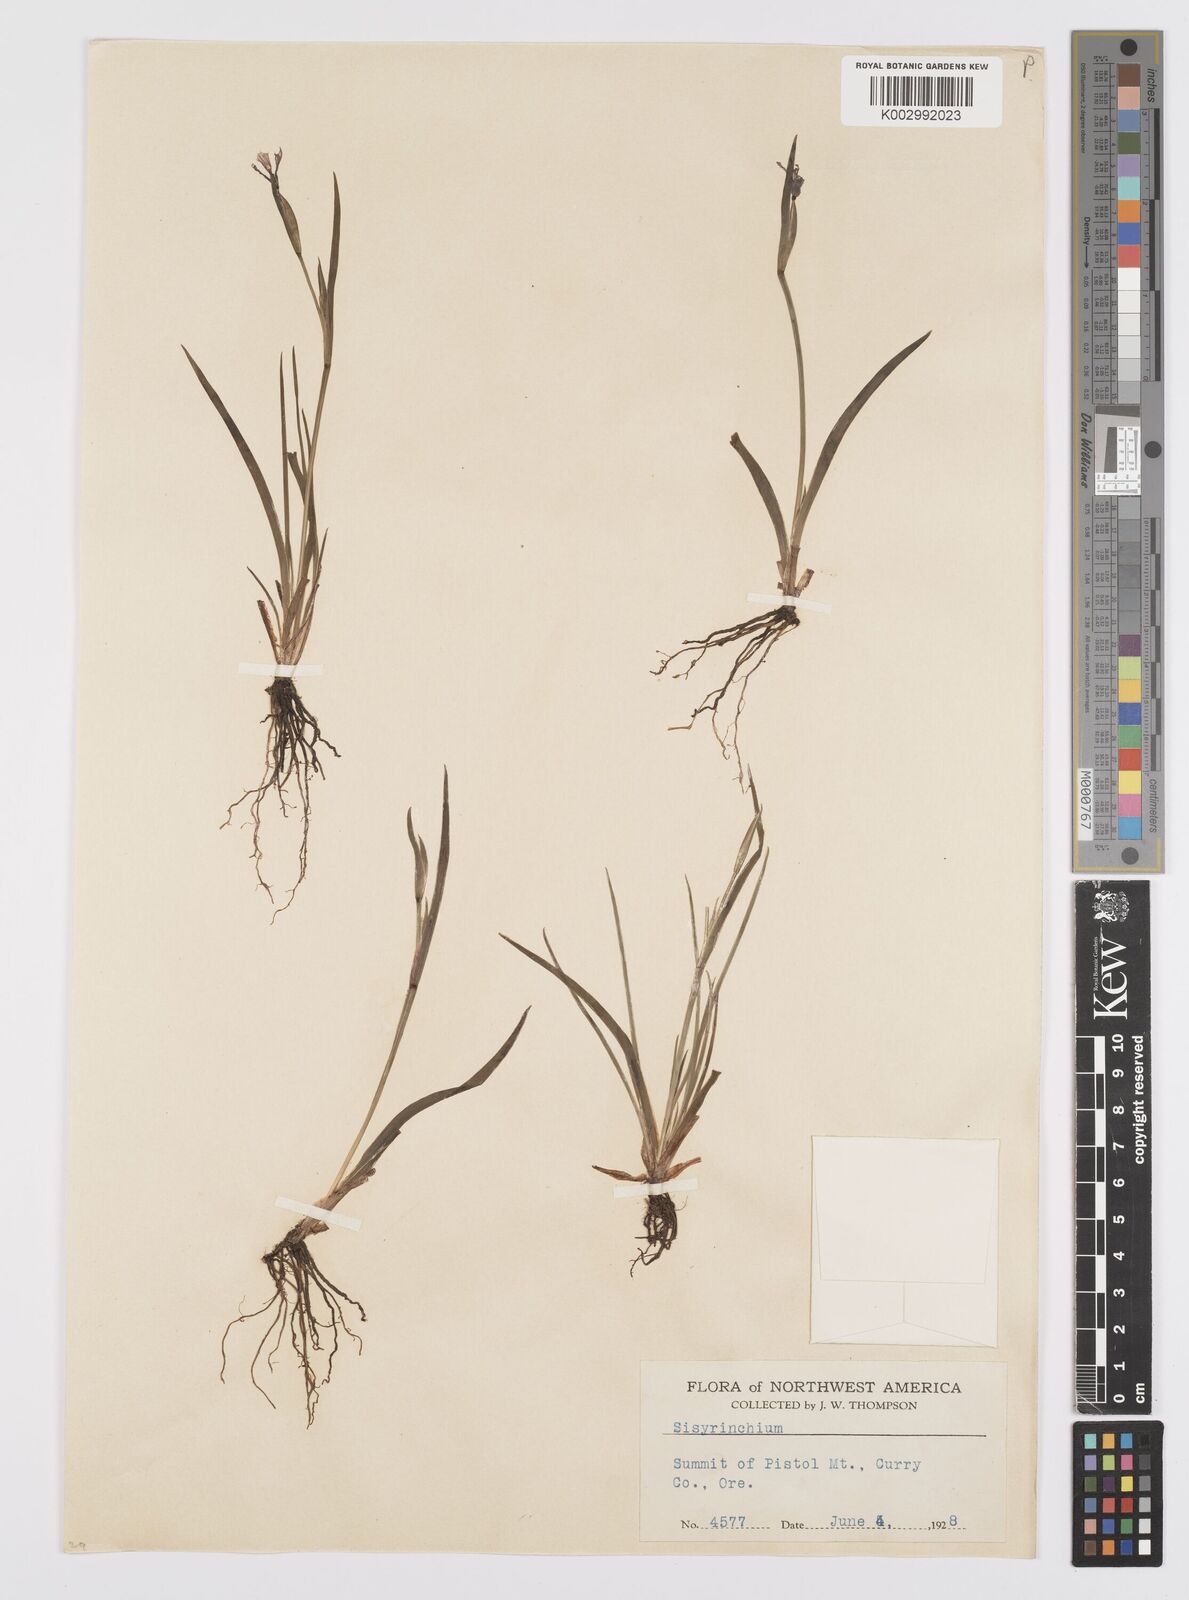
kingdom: Plantae
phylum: Tracheophyta
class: Liliopsida
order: Asparagales
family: Iridaceae
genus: Sisyrinchium
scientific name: Sisyrinchium
